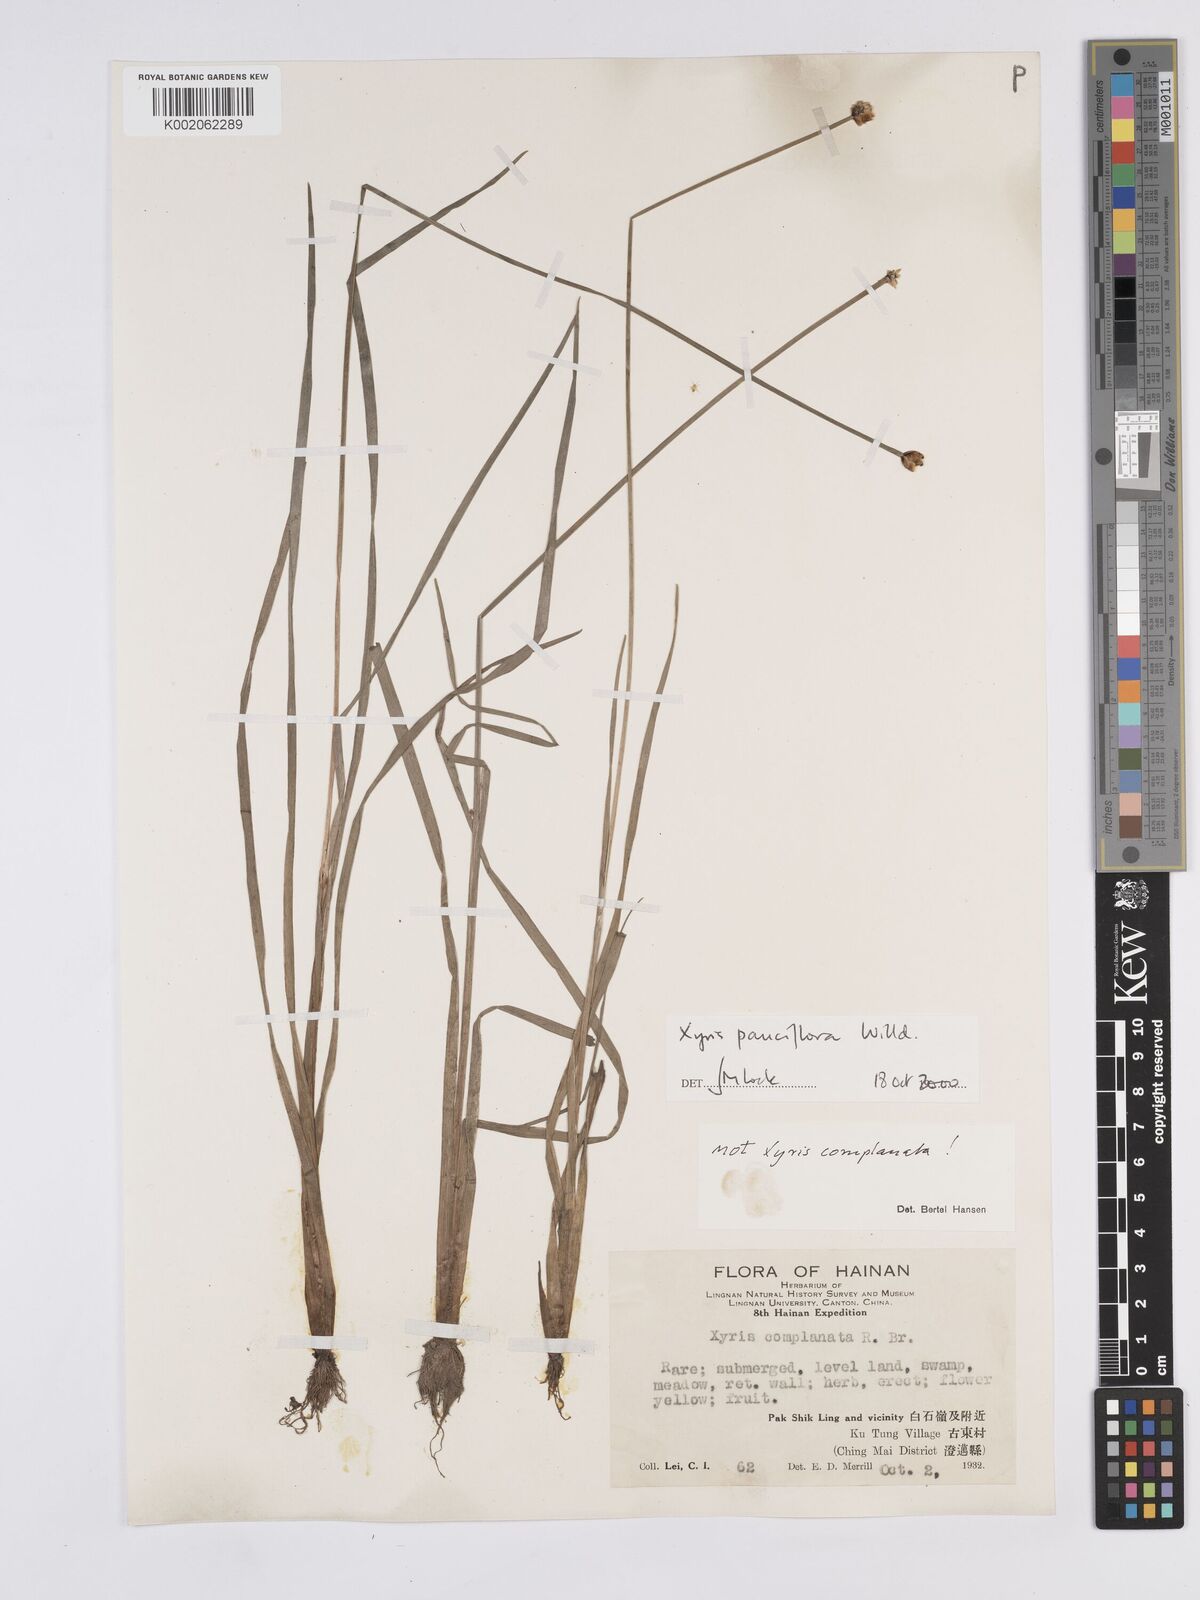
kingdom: Plantae
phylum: Tracheophyta
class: Liliopsida
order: Poales
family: Xyridaceae
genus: Xyris
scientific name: Xyris pauciflora
